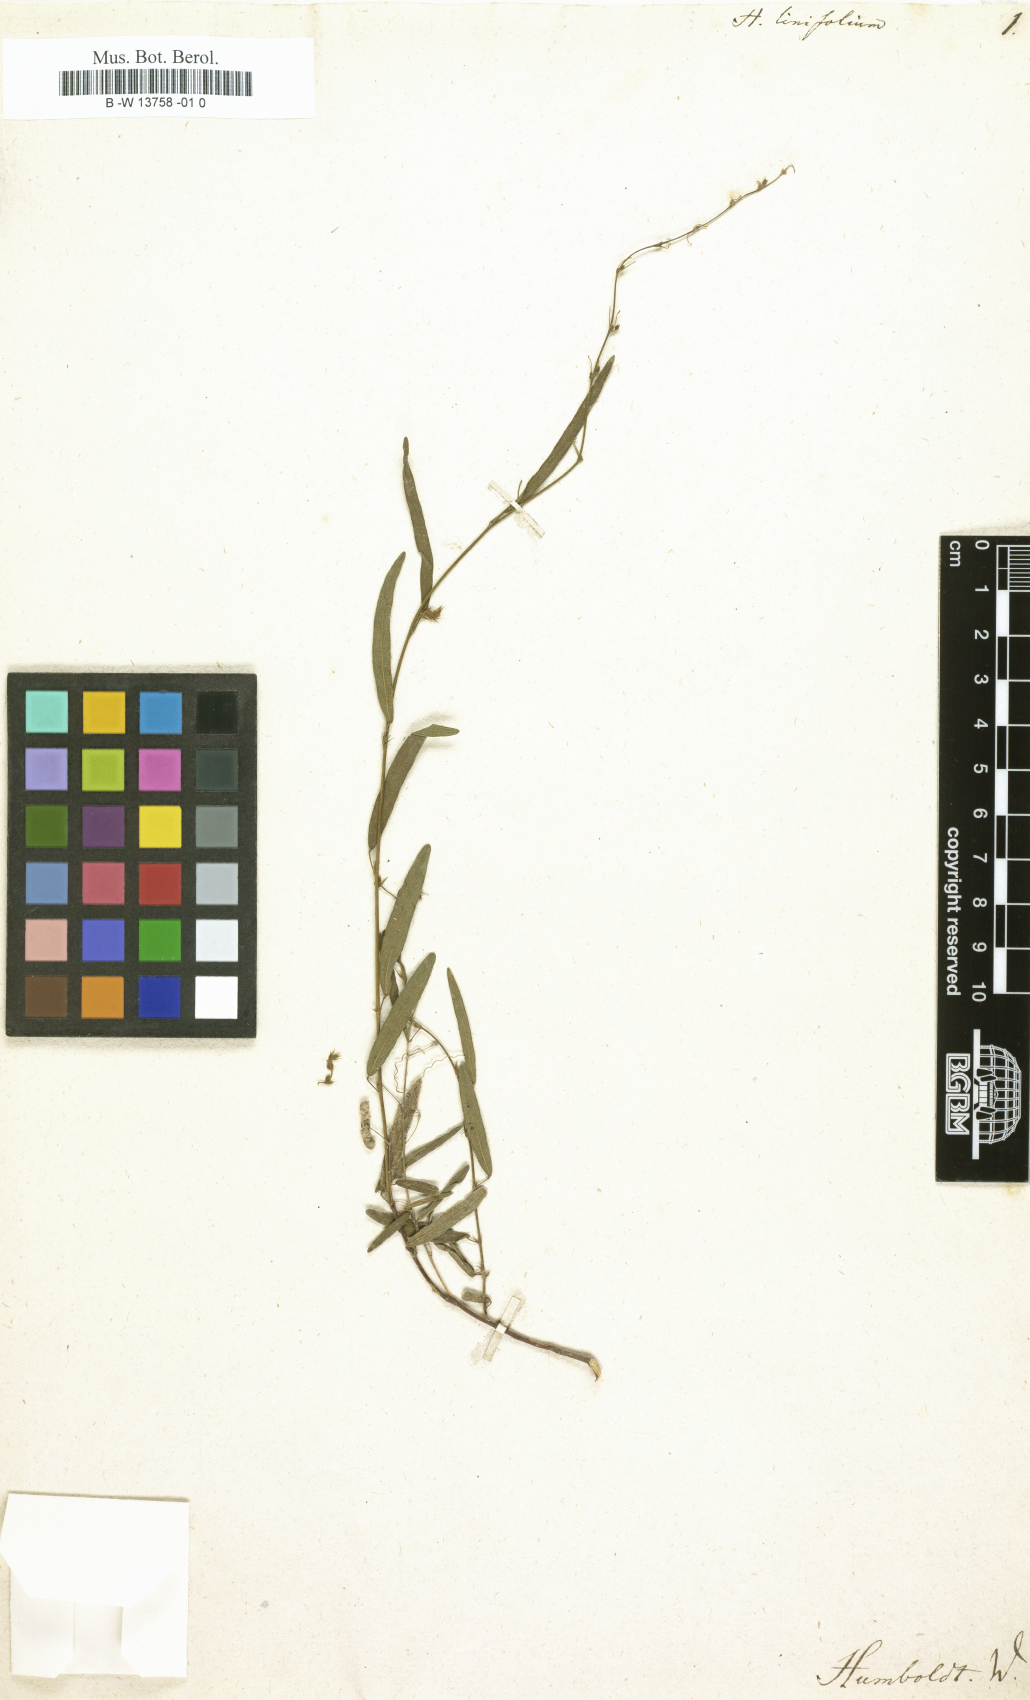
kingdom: Plantae
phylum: Tracheophyta
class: Magnoliopsida
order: Fabales
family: Fabaceae
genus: Indigofera
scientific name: Indigofera linifolia
